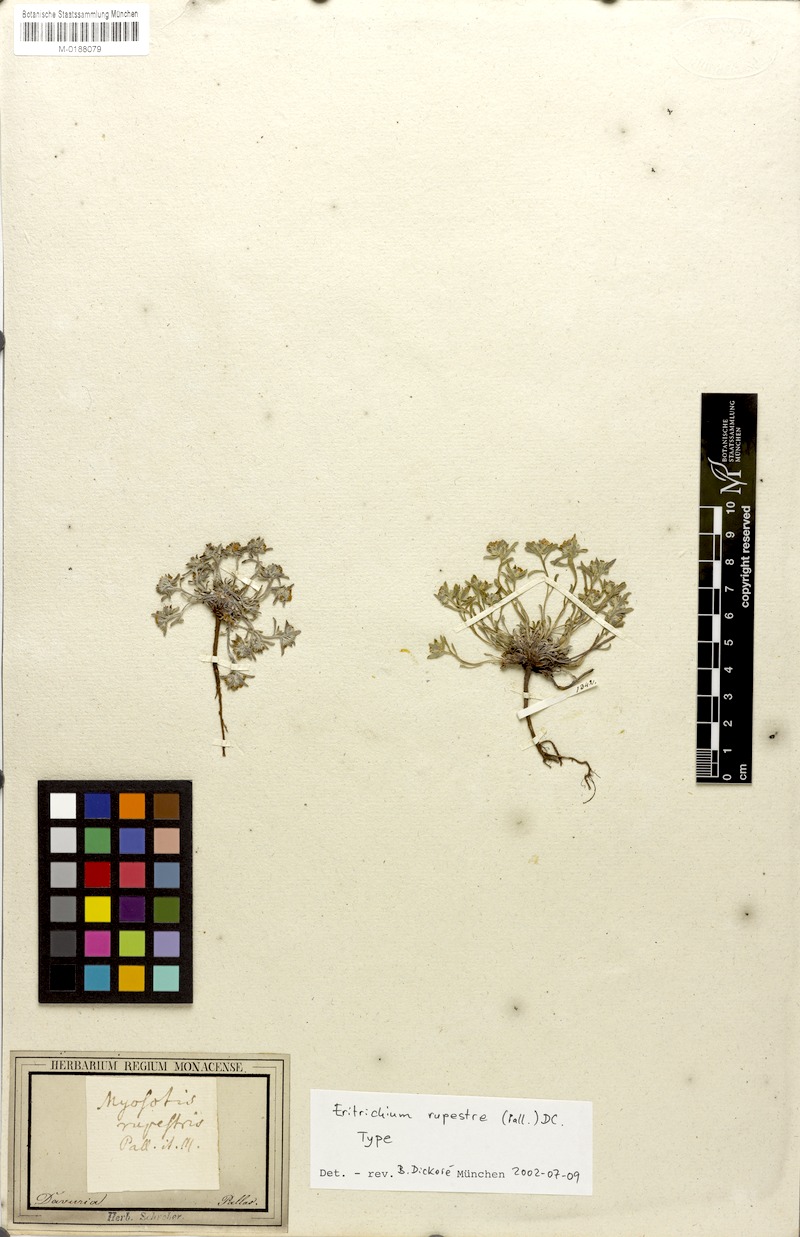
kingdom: Plantae
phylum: Tracheophyta
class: Magnoliopsida
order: Boraginales
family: Boraginaceae
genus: Eritrichium
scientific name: Eritrichium rupestre
